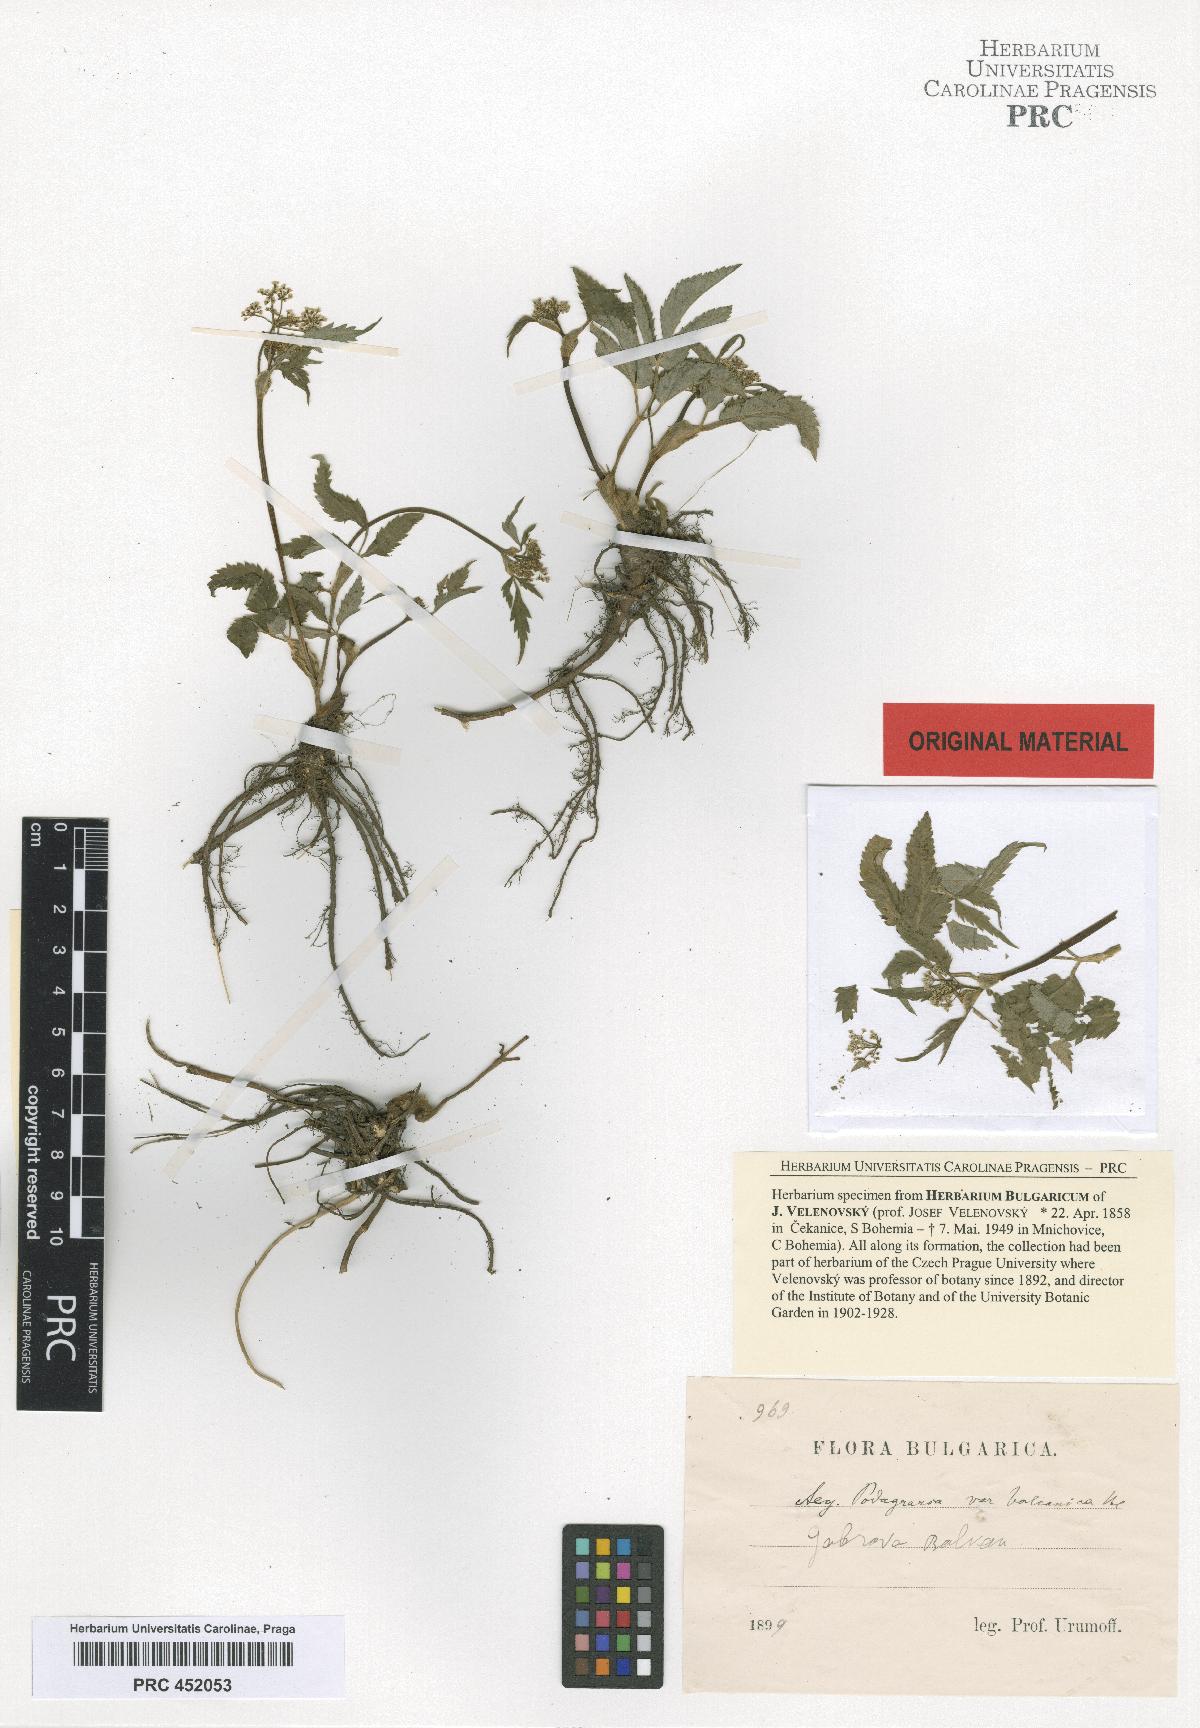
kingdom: Plantae
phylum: Tracheophyta
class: Magnoliopsida
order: Apiales
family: Apiaceae
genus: Aegopodium
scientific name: Aegopodium podagraria
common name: Ground-elder
